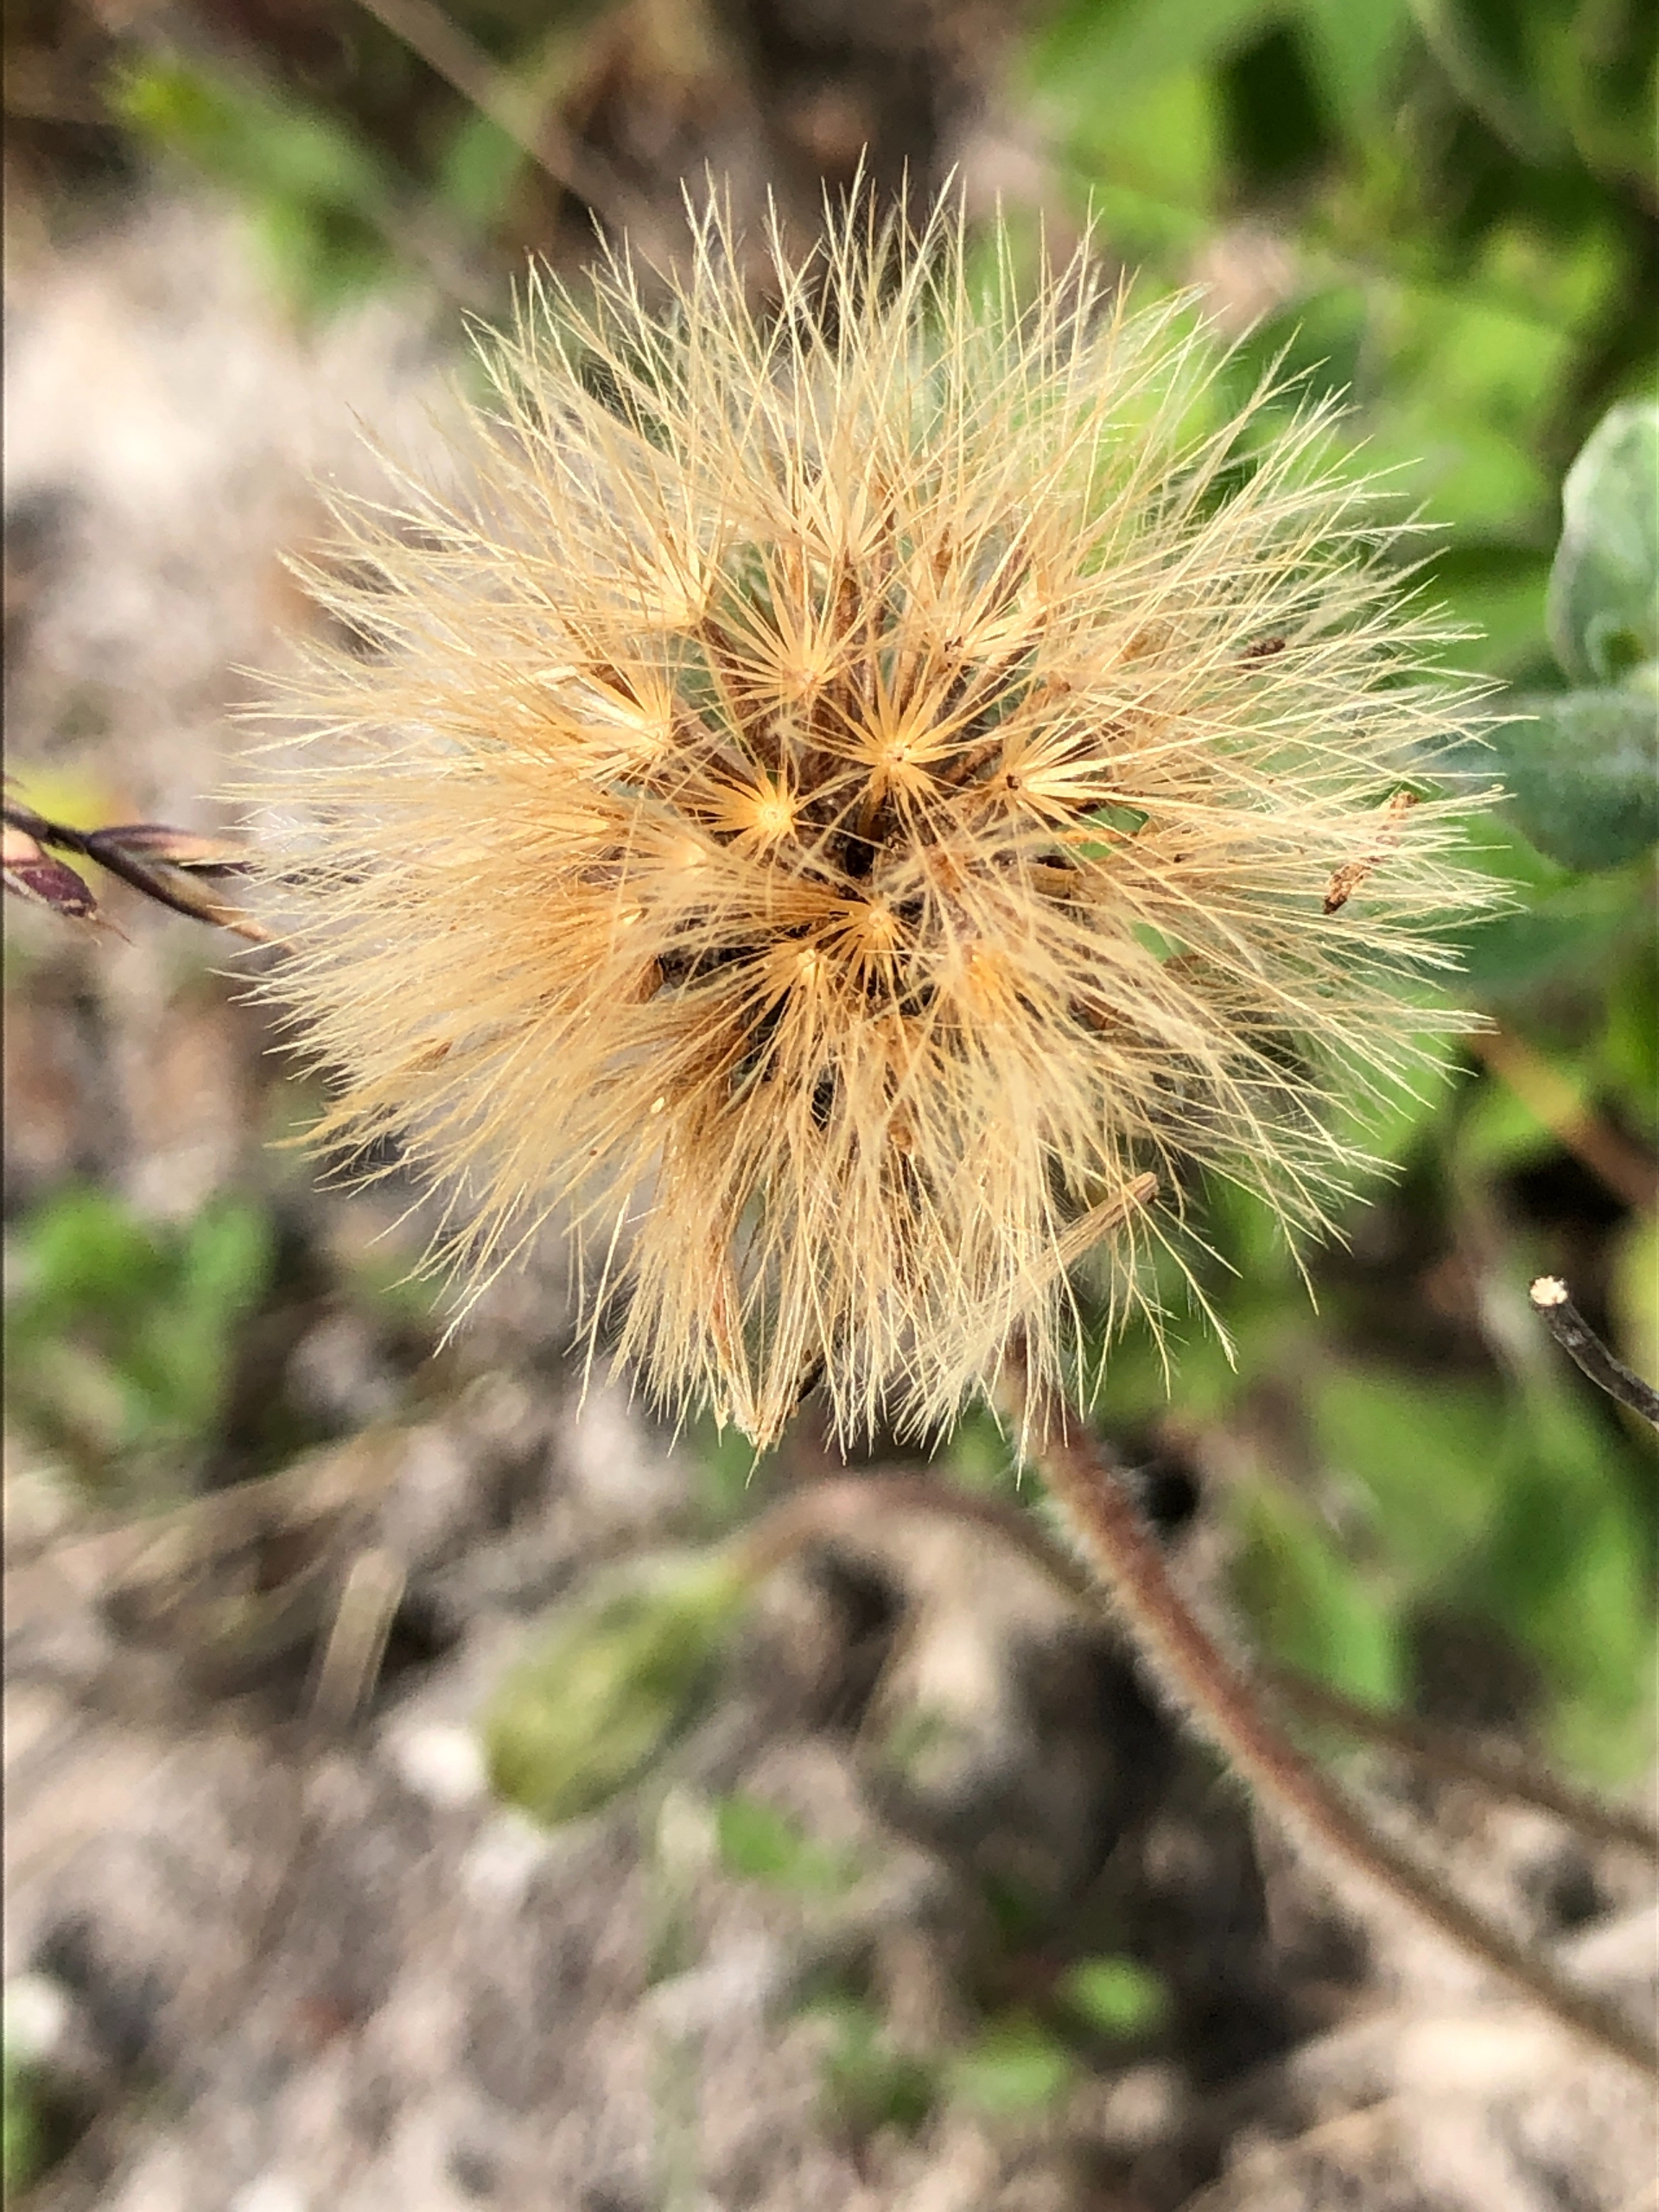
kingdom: Plantae
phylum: Tracheophyta
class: Magnoliopsida
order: Asterales
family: Asteraceae
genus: Leontodon
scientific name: Leontodon hispidus
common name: Stivhåret borst
